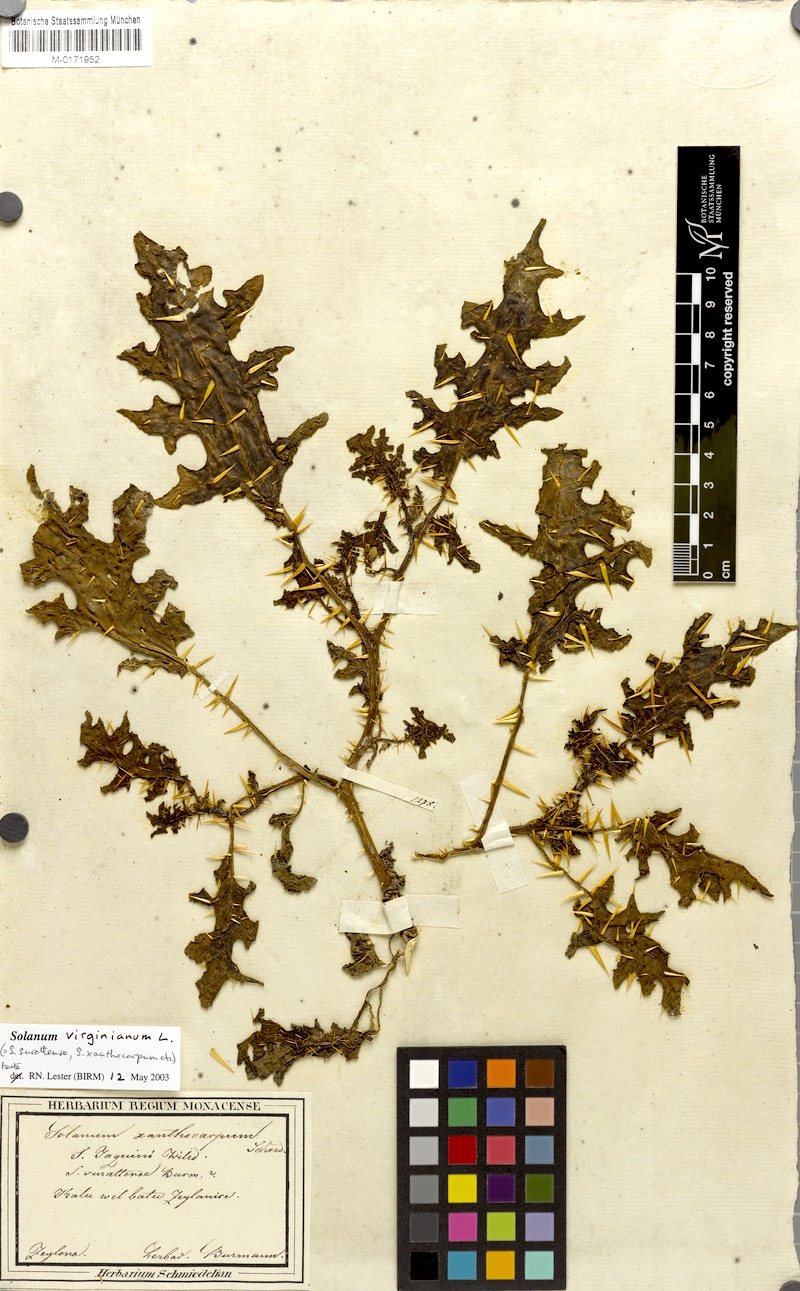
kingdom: Plantae
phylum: Tracheophyta
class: Magnoliopsida
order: Solanales
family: Solanaceae
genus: Solanum
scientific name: Solanum virginianum
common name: Surattense nightshade
